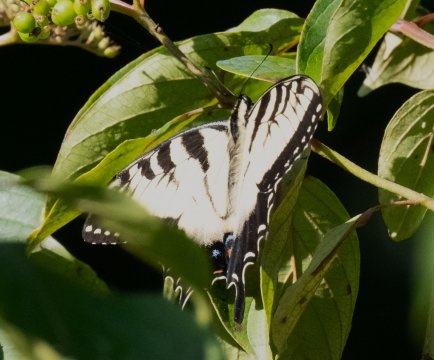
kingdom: Animalia
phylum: Arthropoda
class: Insecta
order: Lepidoptera
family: Papilionidae
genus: Pterourus
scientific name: Pterourus glaucus
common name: Eastern Tiger Swallowtail
